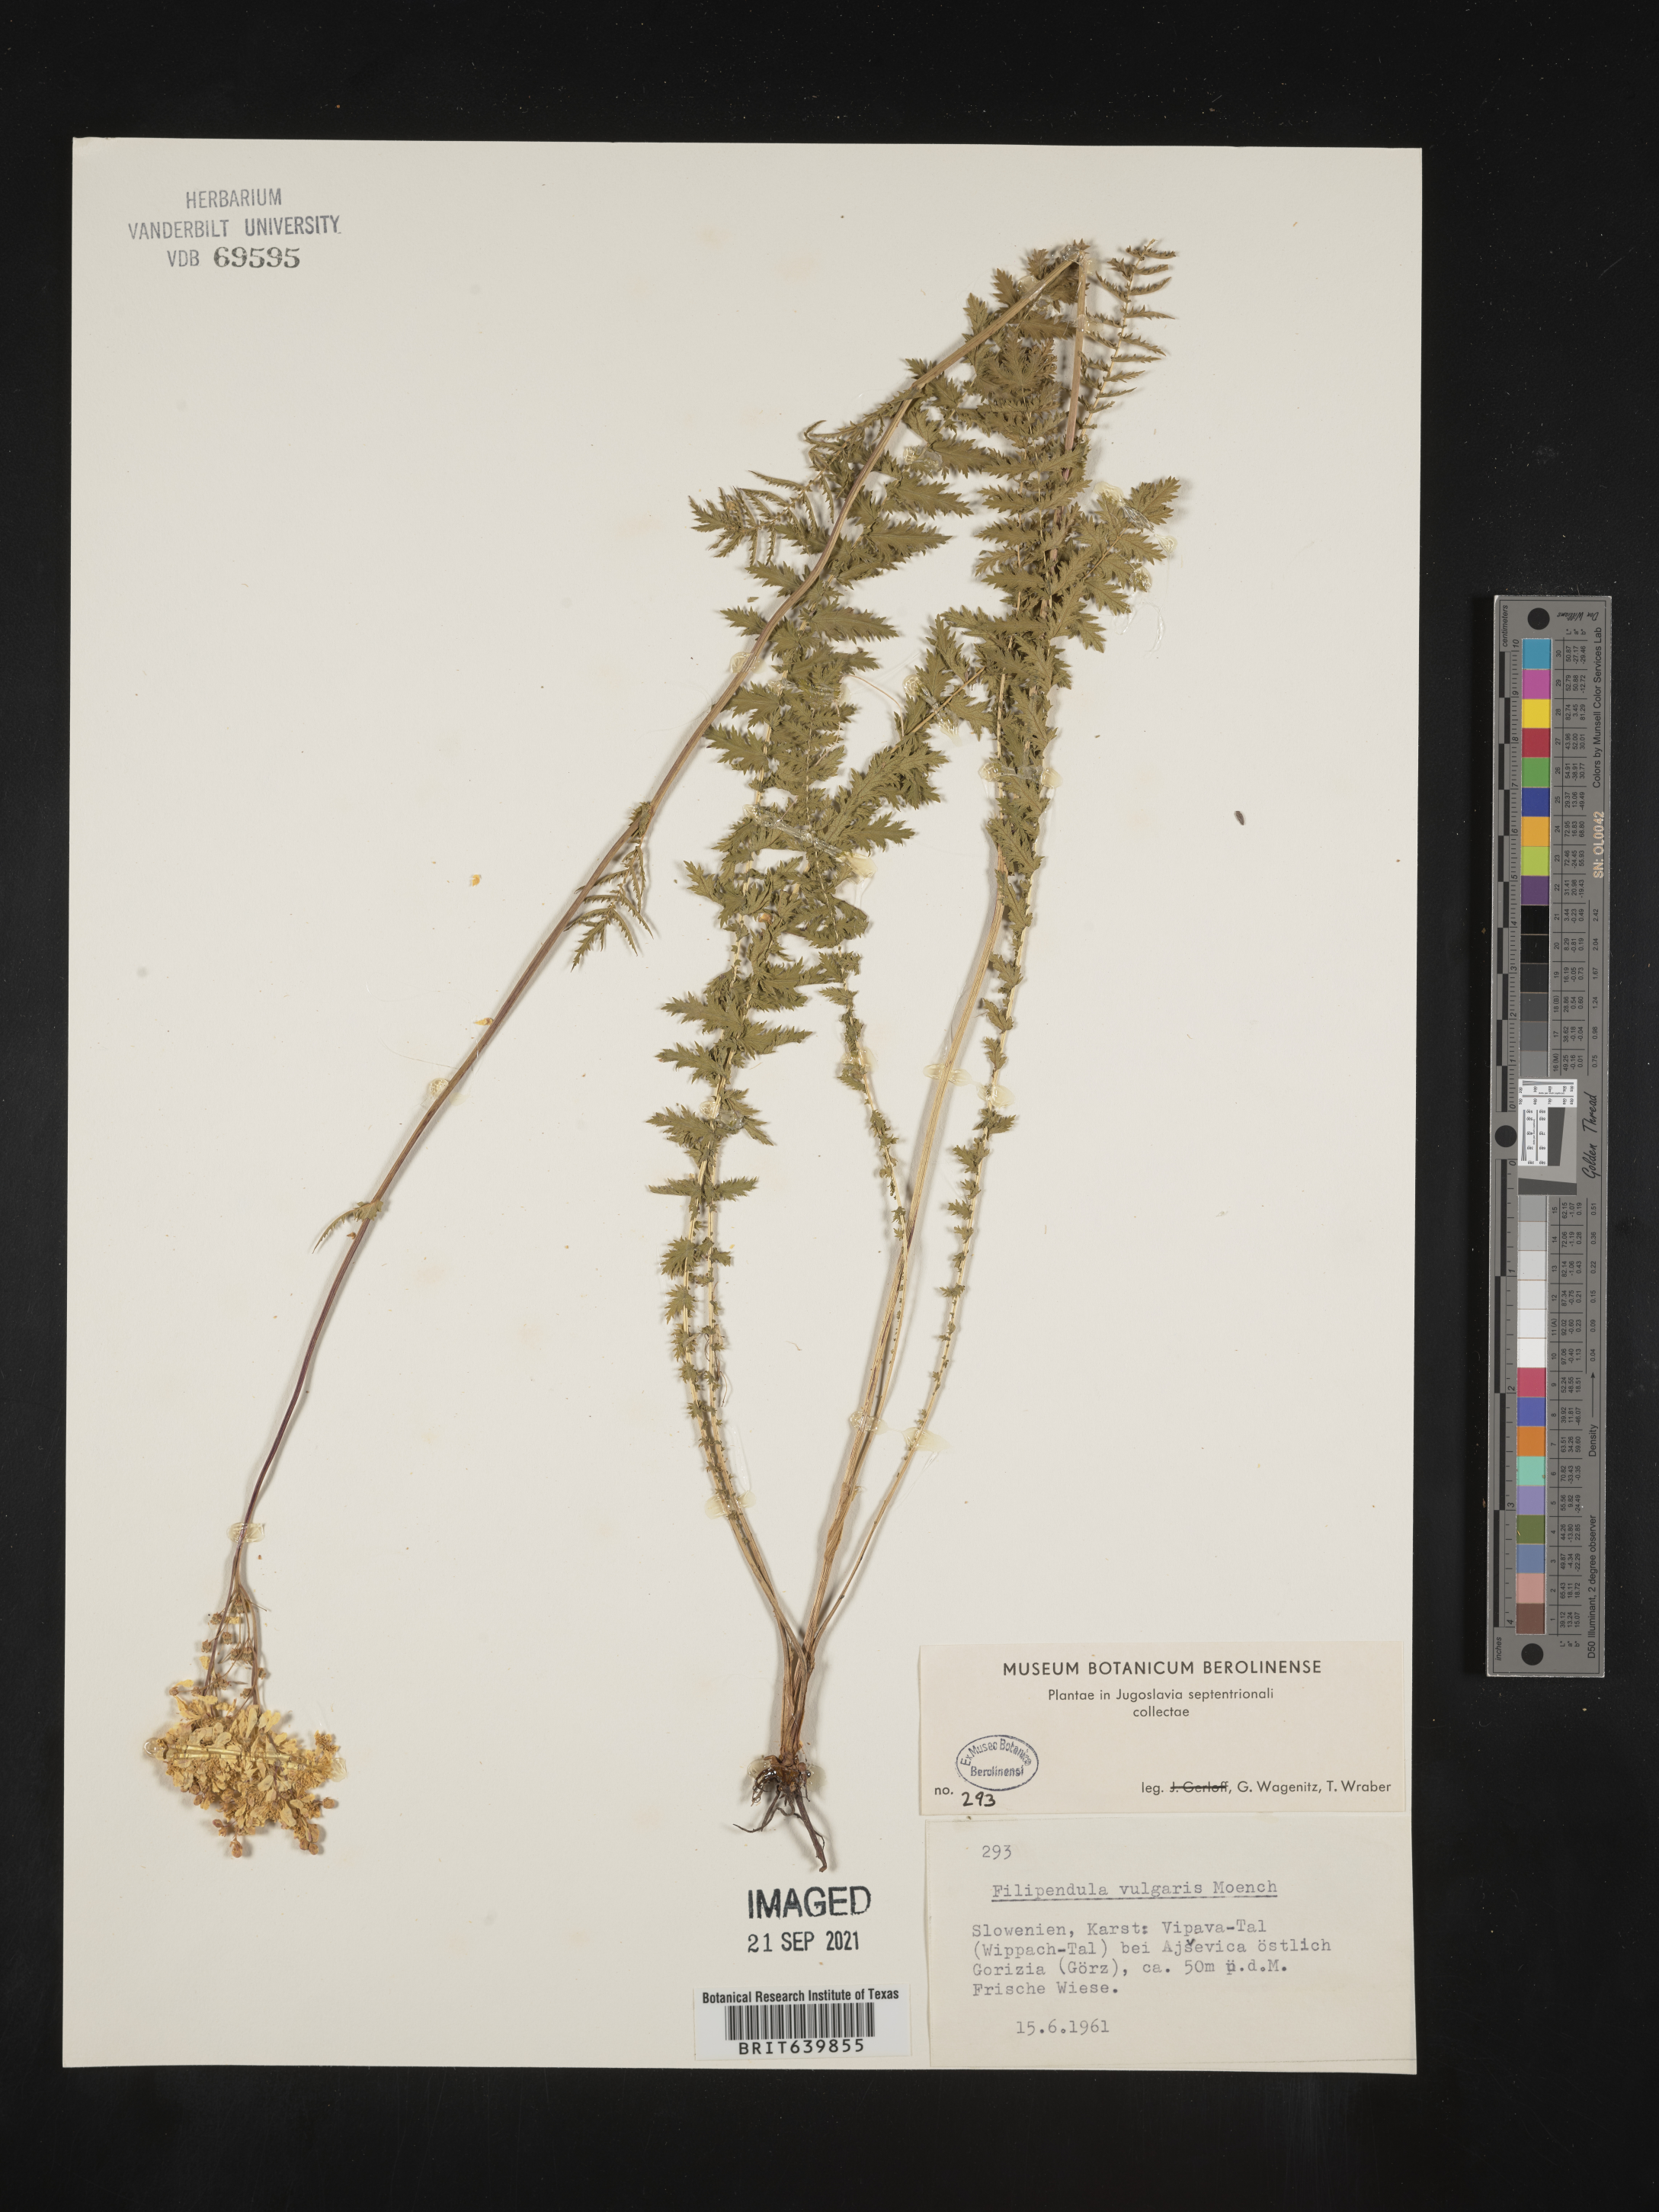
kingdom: Plantae
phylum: Tracheophyta
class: Magnoliopsida
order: Rosales
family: Rosaceae
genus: Filipendula
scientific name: Filipendula
